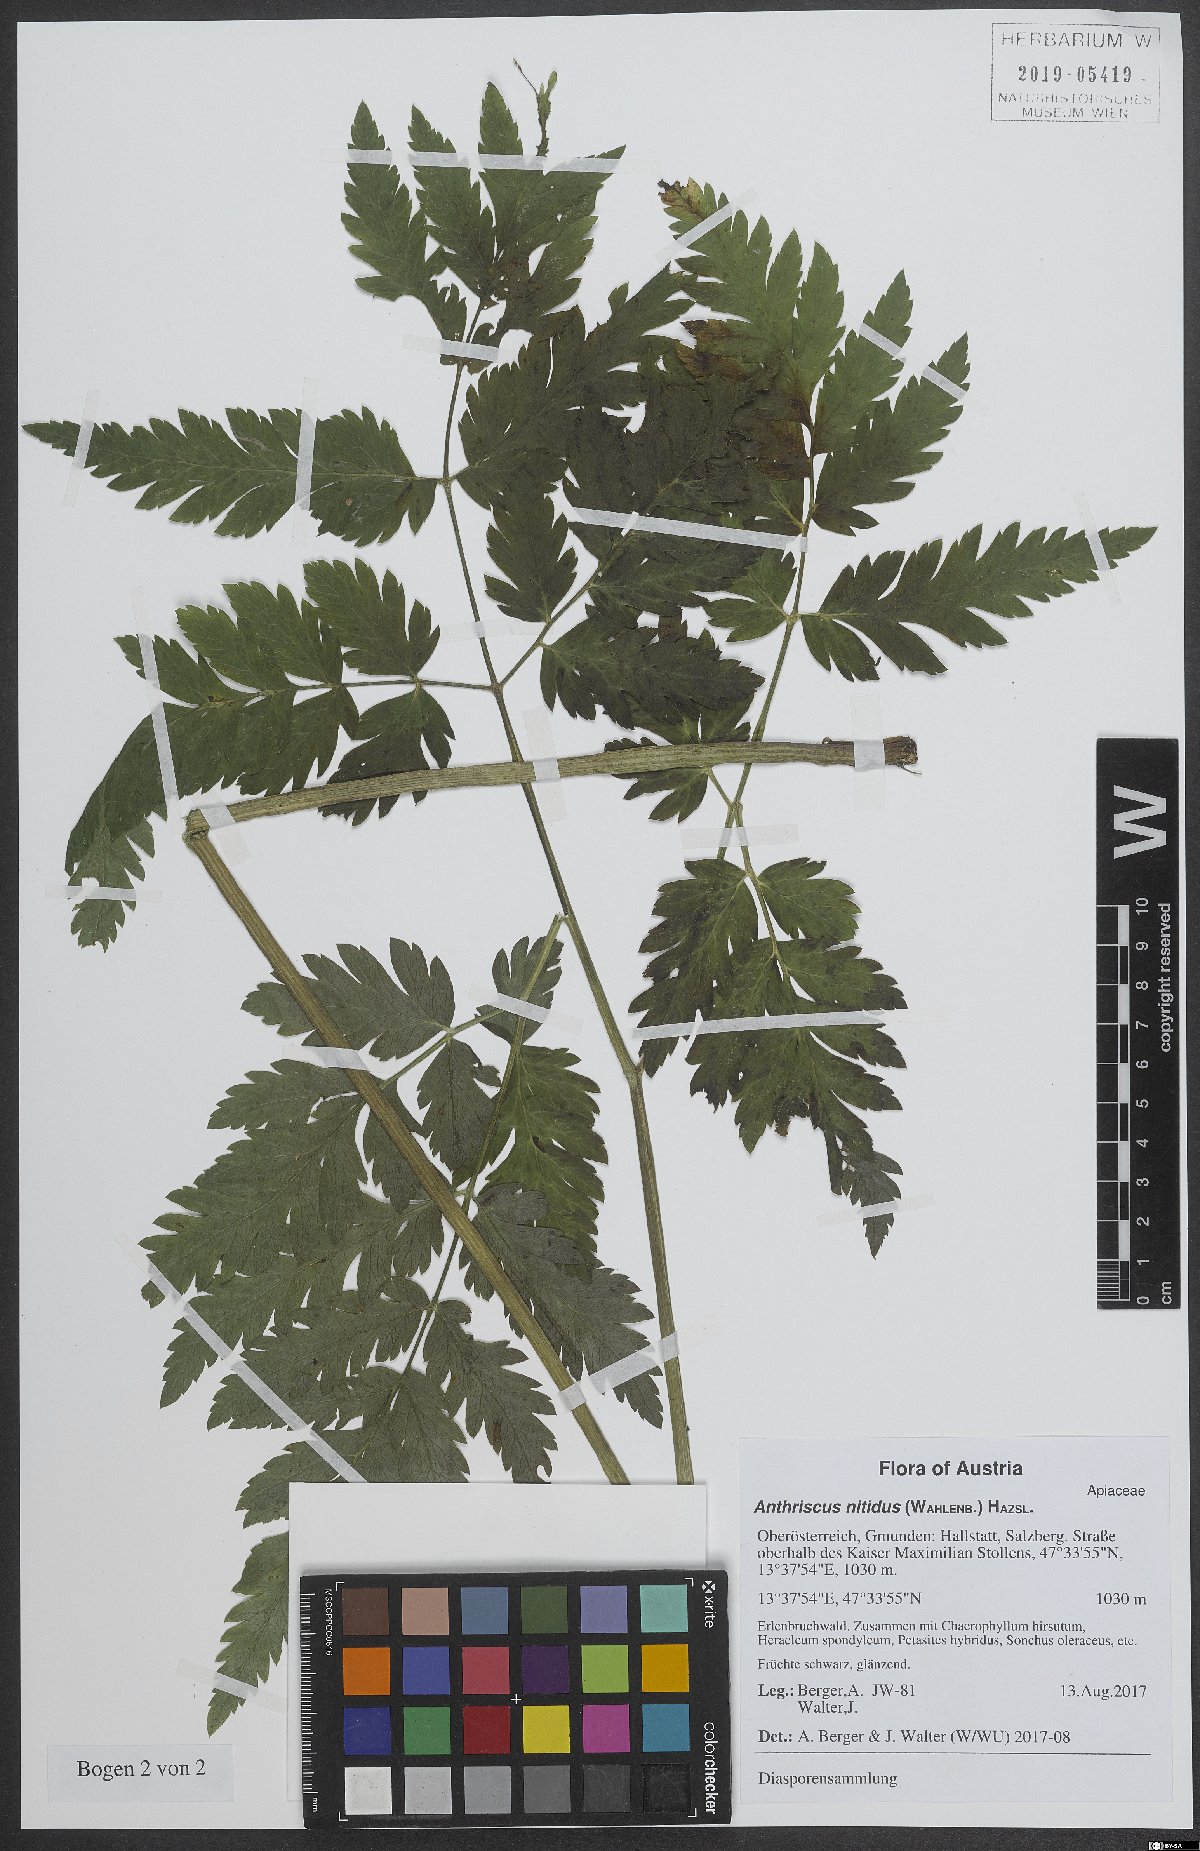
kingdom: Plantae
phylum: Tracheophyta
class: Magnoliopsida
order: Apiales
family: Apiaceae
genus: Anthriscus
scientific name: Anthriscus nitida
